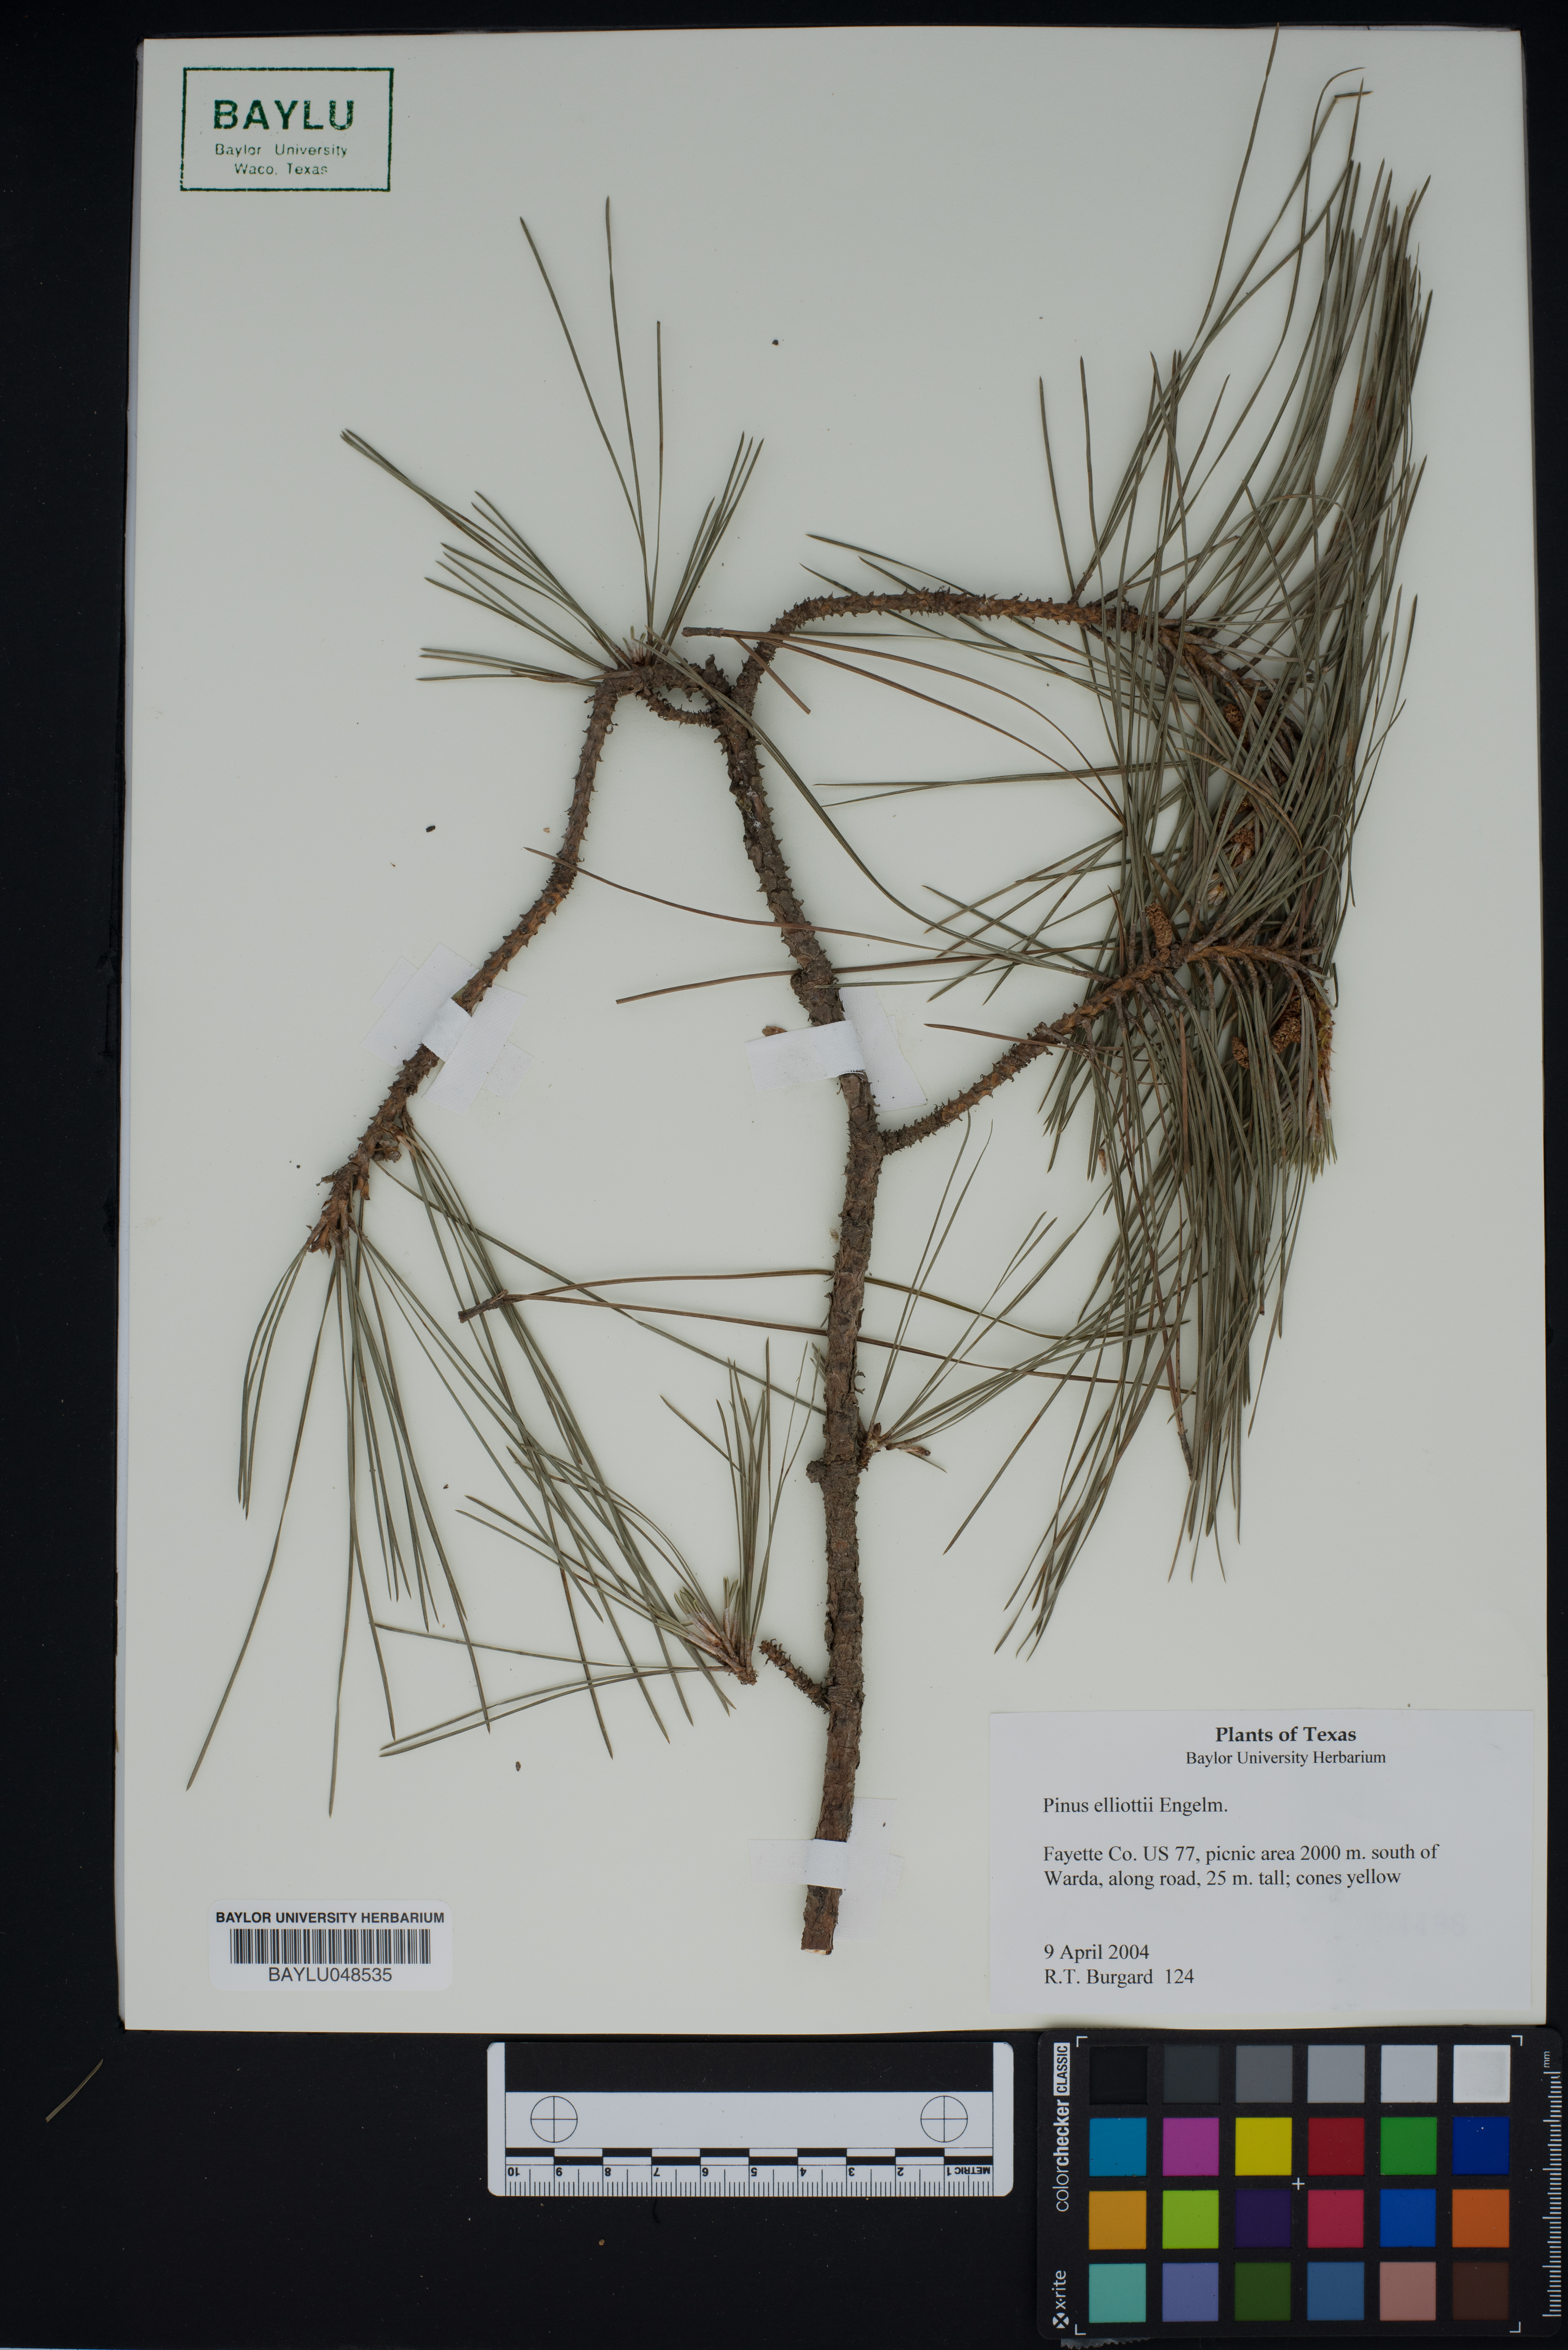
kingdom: Plantae
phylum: Tracheophyta
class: Pinopsida
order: Pinales
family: Pinaceae
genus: Pinus
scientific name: Pinus elliottii
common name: Slash pine
